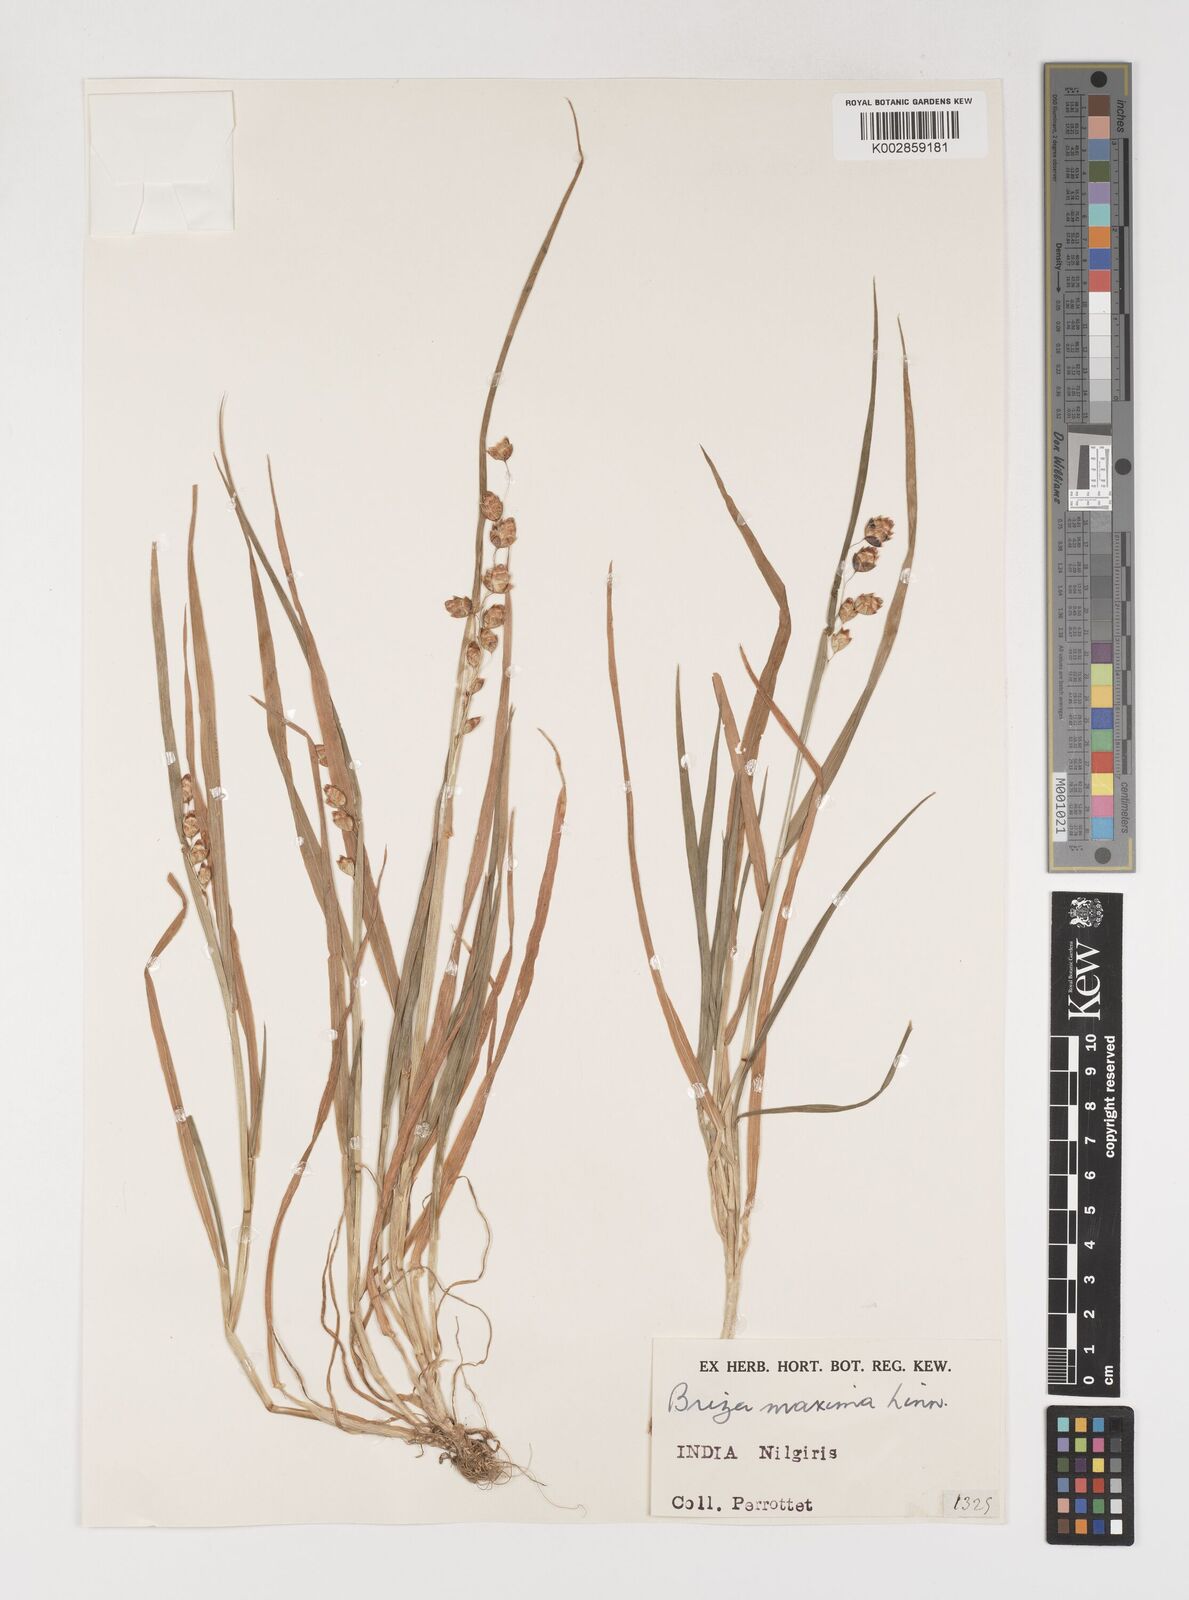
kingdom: Plantae
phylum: Tracheophyta
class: Liliopsida
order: Poales
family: Poaceae
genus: Briza
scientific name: Briza maxima
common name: Big quakinggrass
